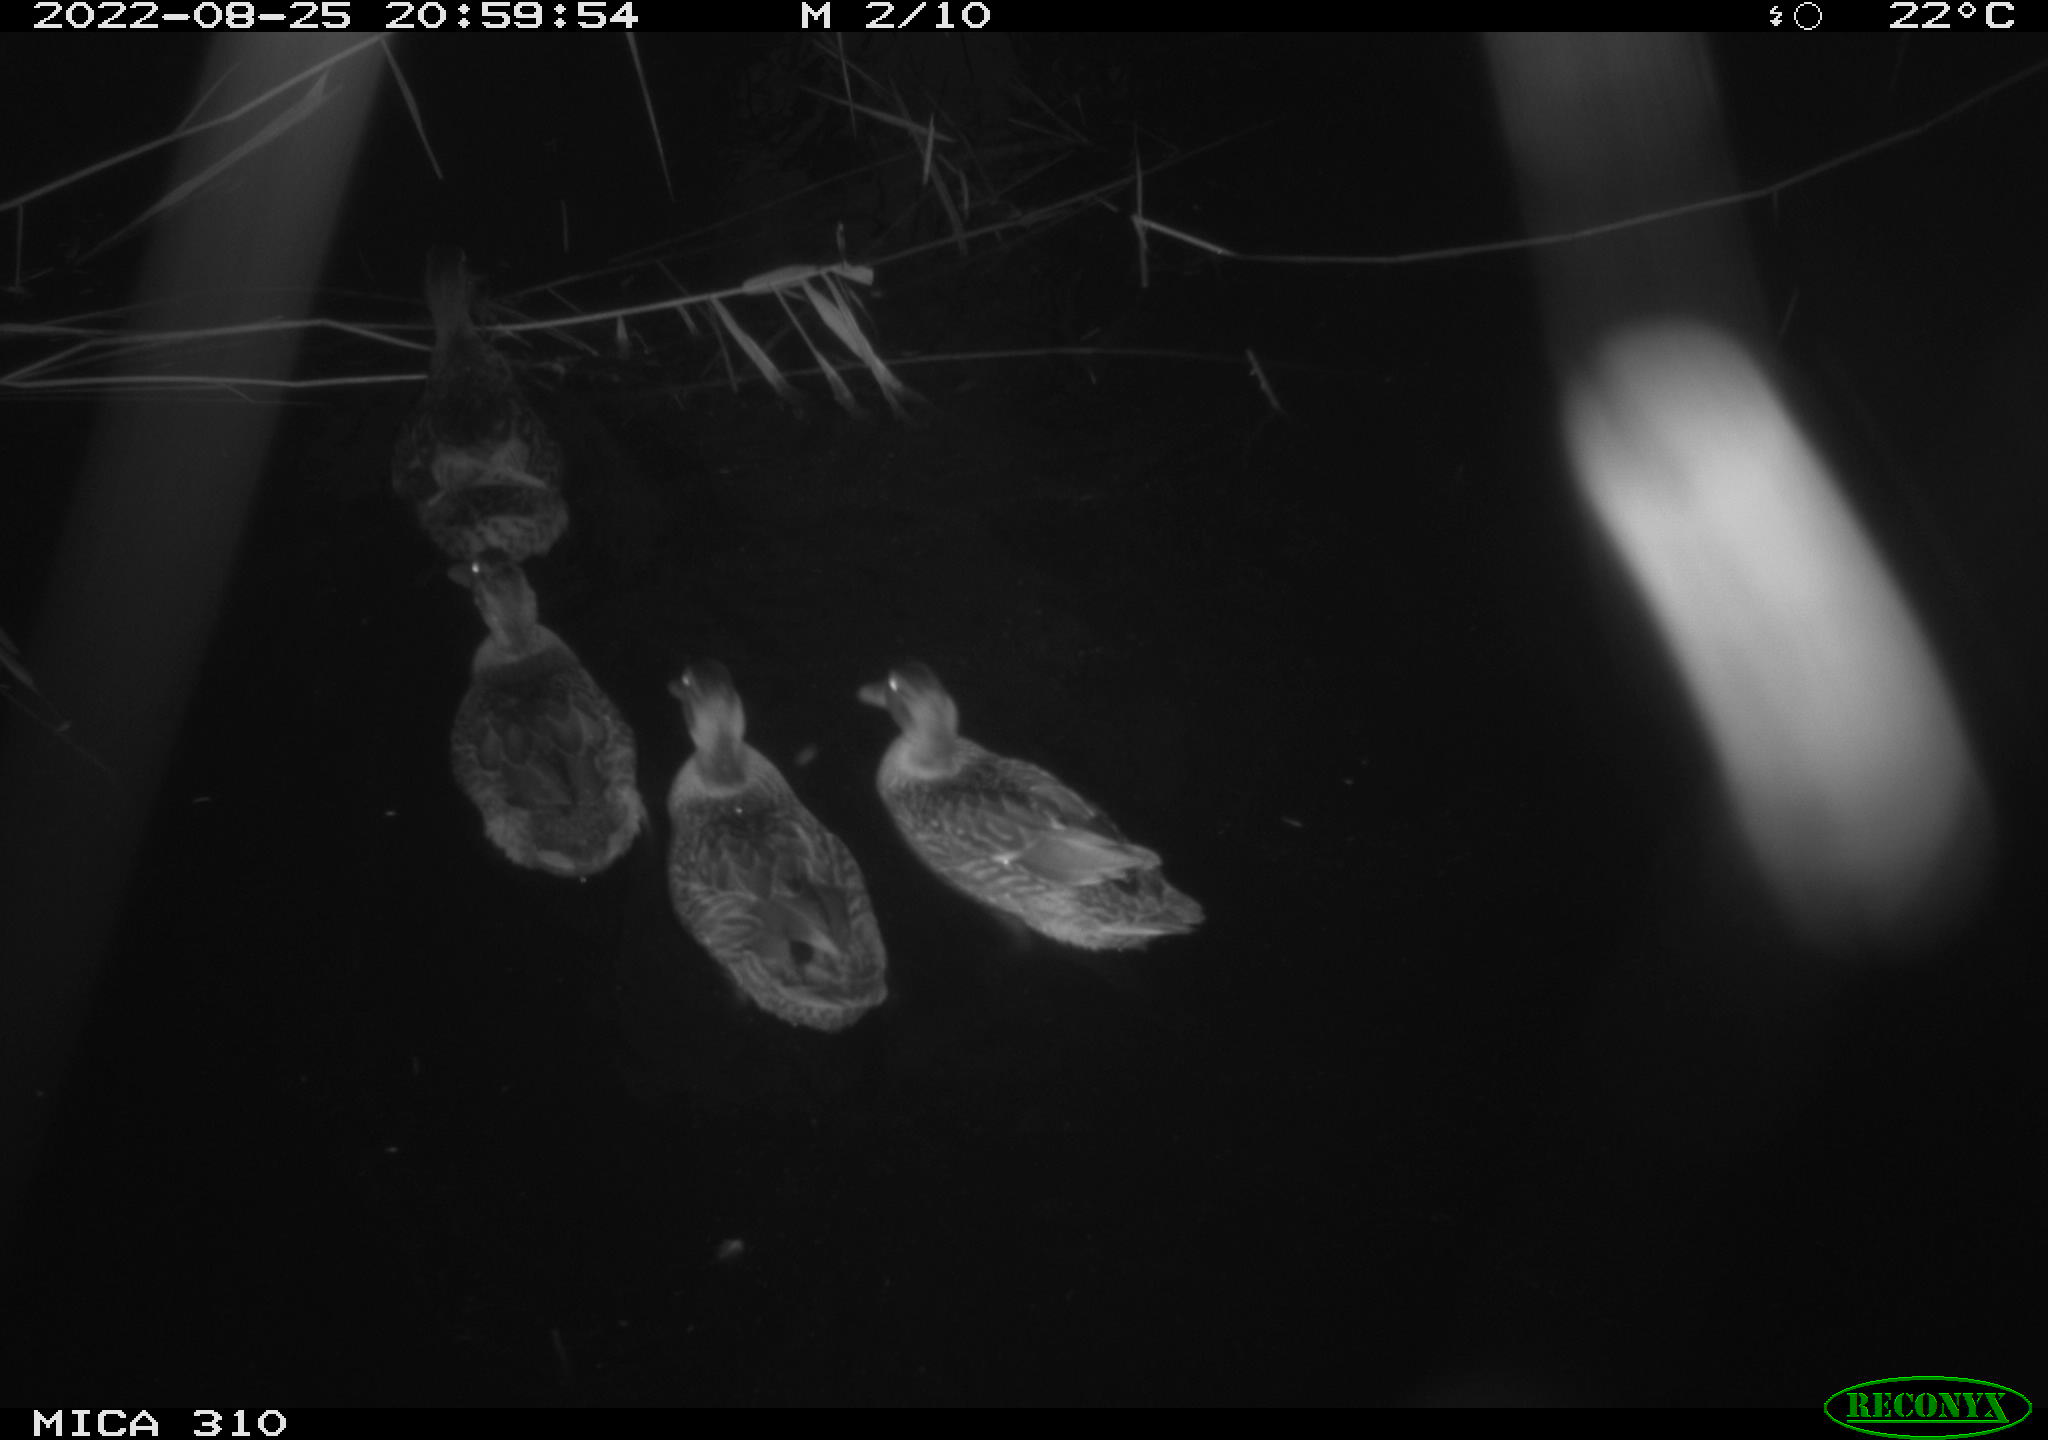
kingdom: Animalia
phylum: Chordata
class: Aves
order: Anseriformes
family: Anatidae
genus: Anas
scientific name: Anas platyrhynchos
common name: Mallard
